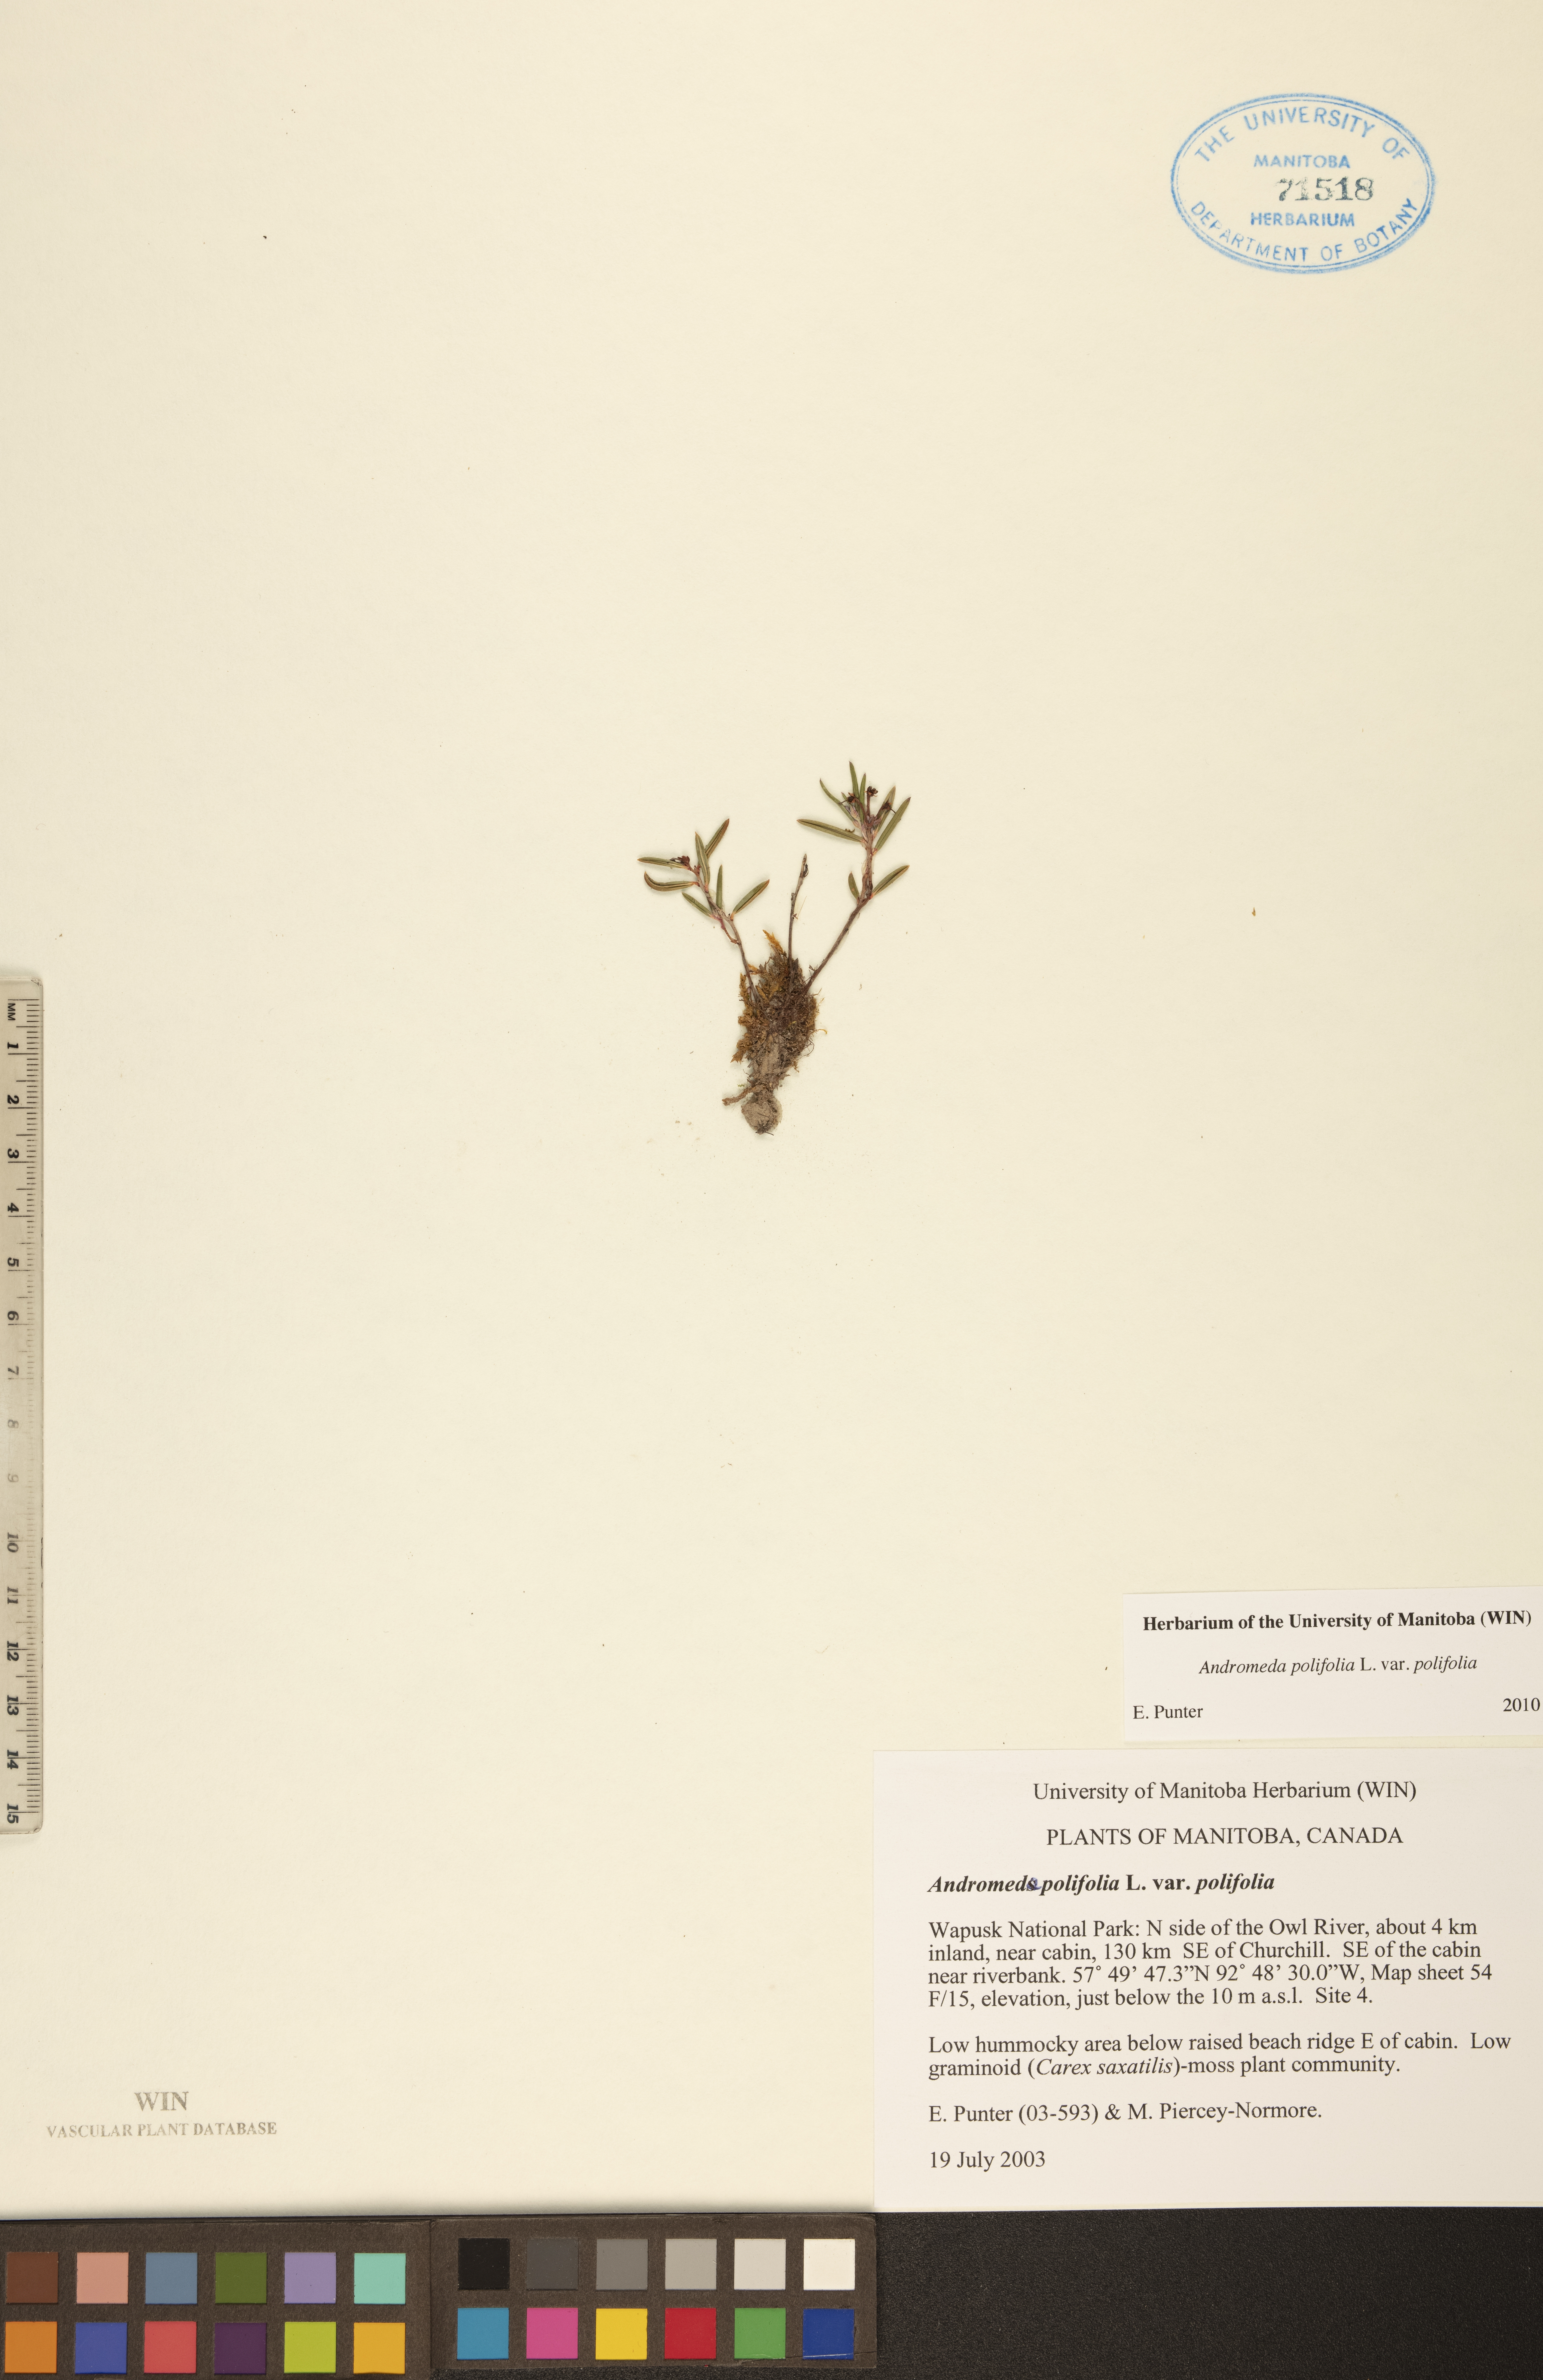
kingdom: Plantae
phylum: Tracheophyta
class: Magnoliopsida
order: Ericales
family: Ericaceae
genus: Andromeda
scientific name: Andromeda polifolia
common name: Bog-rosemary
